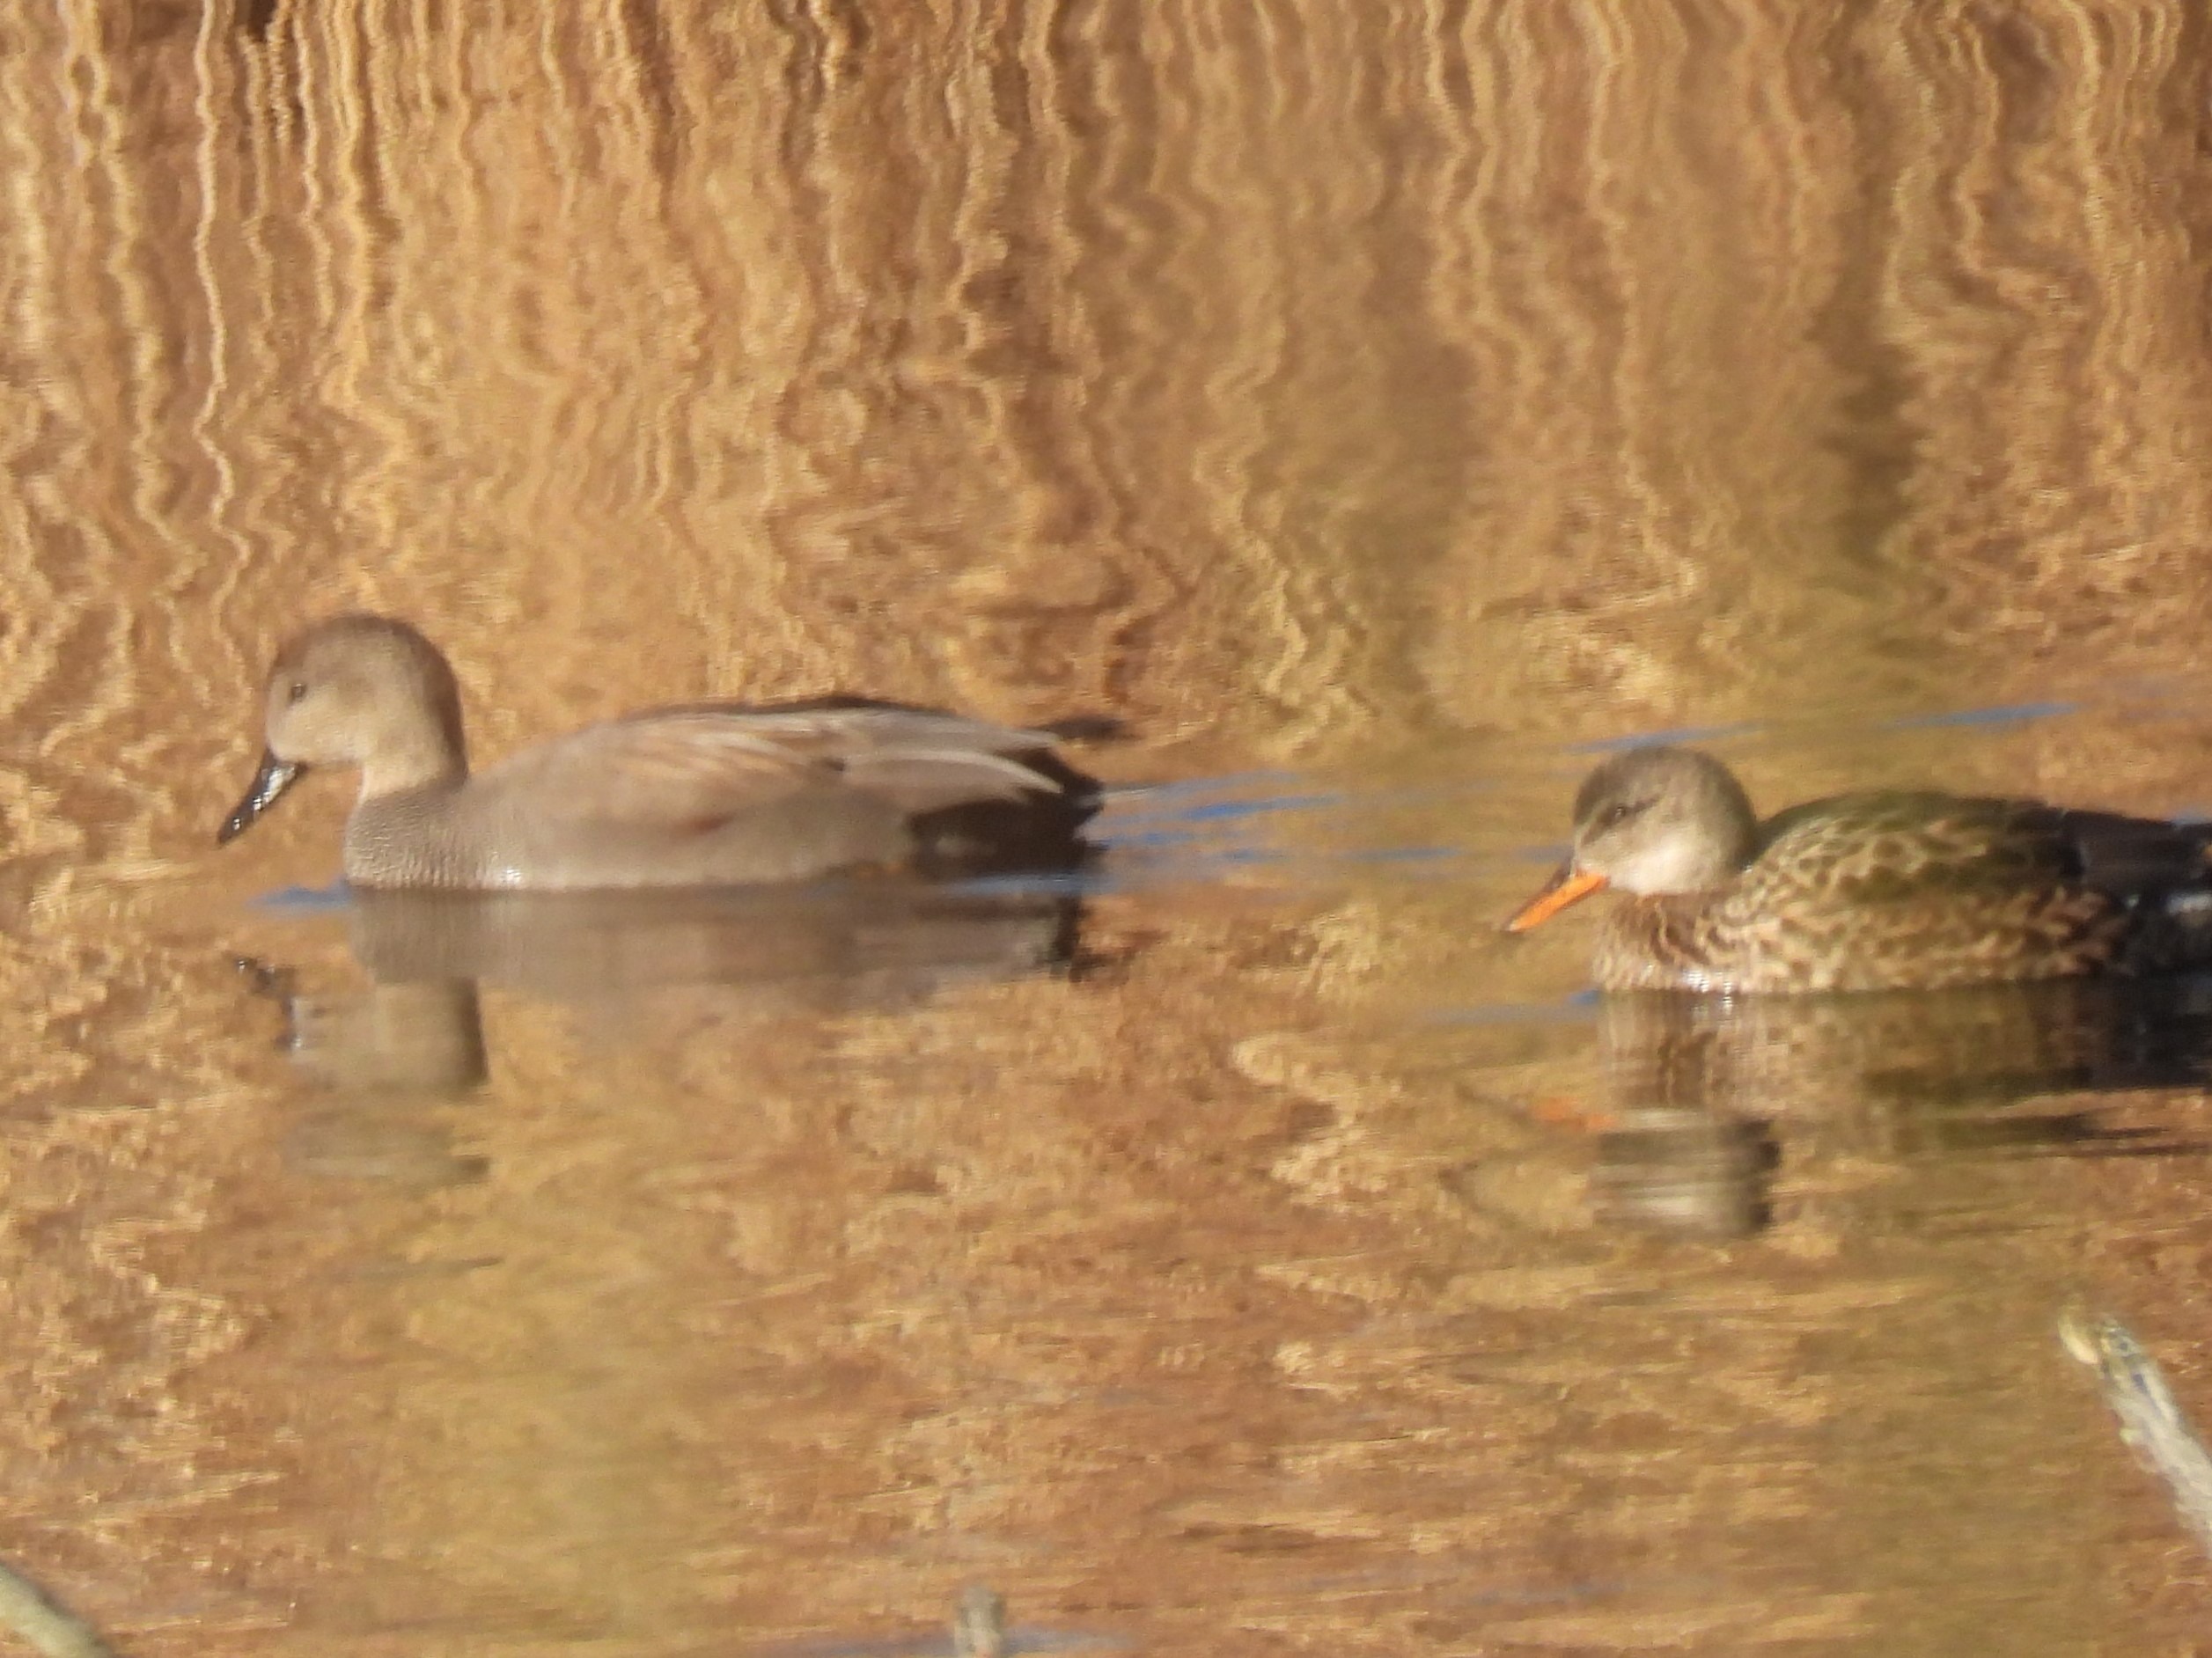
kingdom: Animalia
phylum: Chordata
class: Aves
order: Anseriformes
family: Anatidae
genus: Mareca
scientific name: Mareca strepera
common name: Knarand
